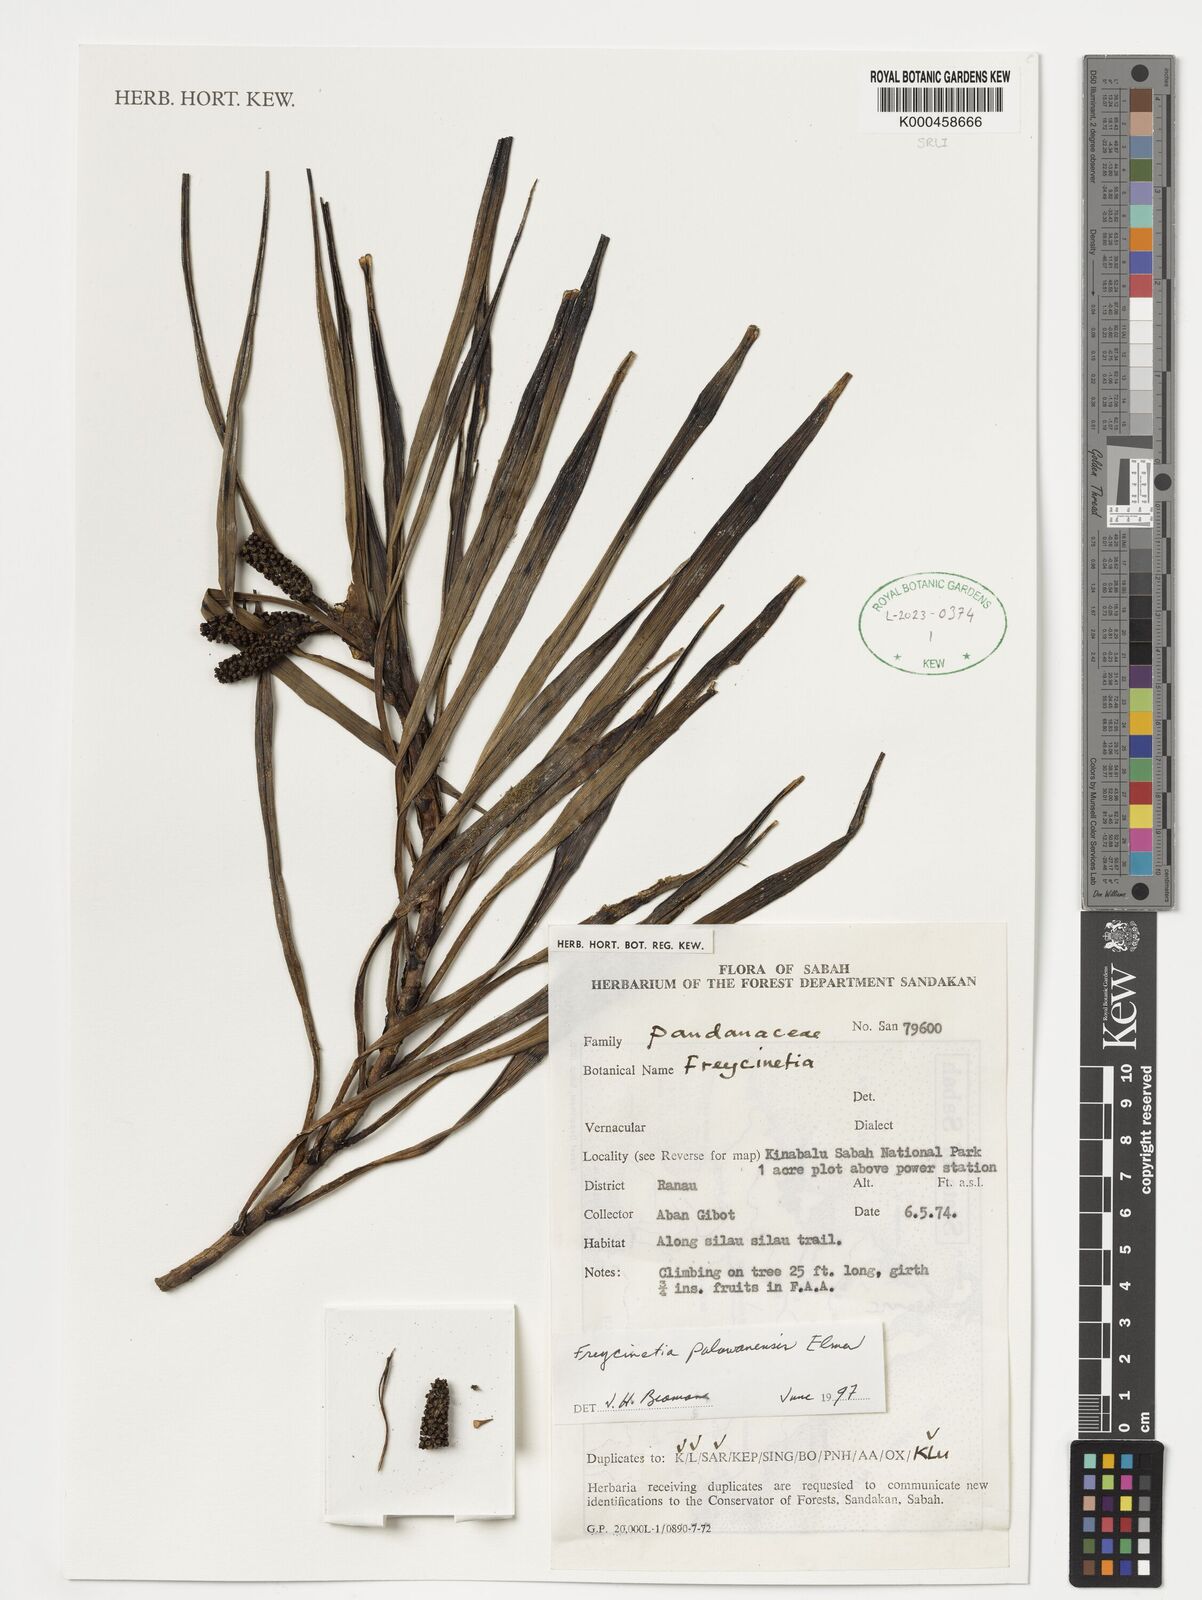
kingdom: Plantae
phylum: Tracheophyta
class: Liliopsida
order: Pandanales
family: Pandanaceae
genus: Freycinetia
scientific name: Freycinetia palawanensis
